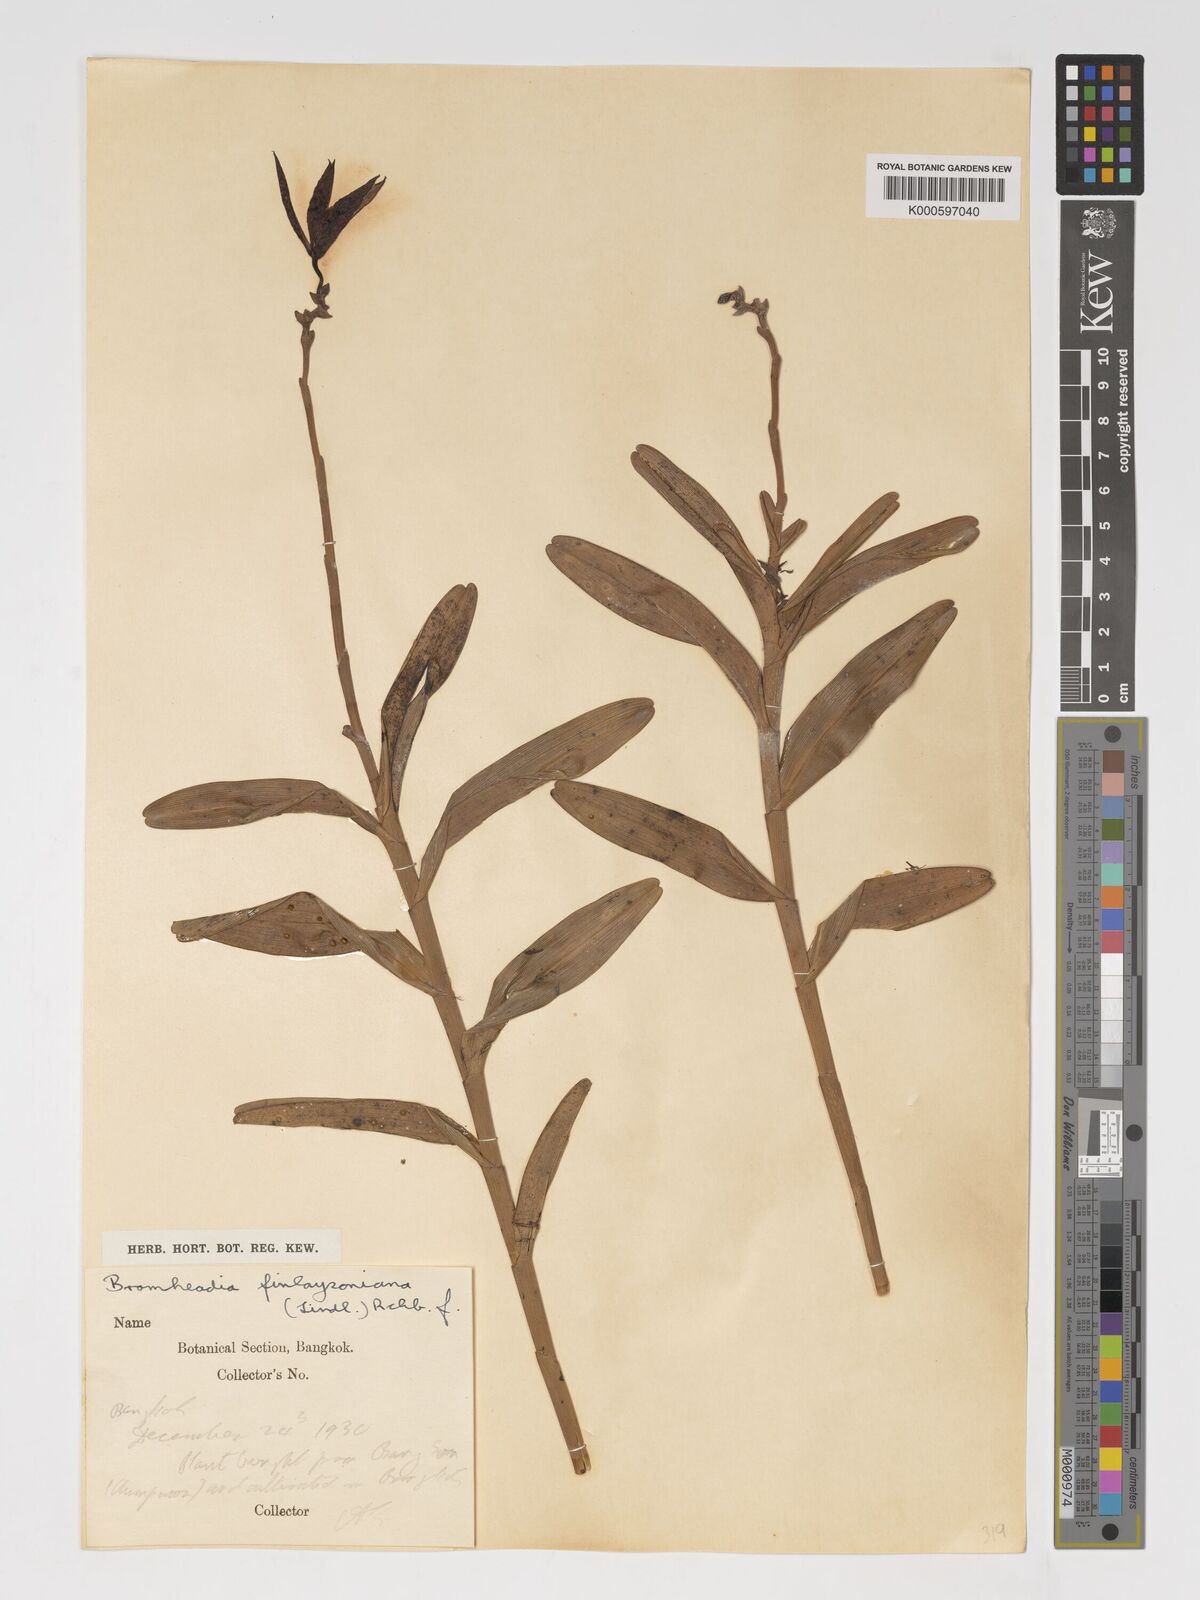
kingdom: Plantae
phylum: Tracheophyta
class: Liliopsida
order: Asparagales
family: Orchidaceae
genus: Bromheadia
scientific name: Bromheadia
